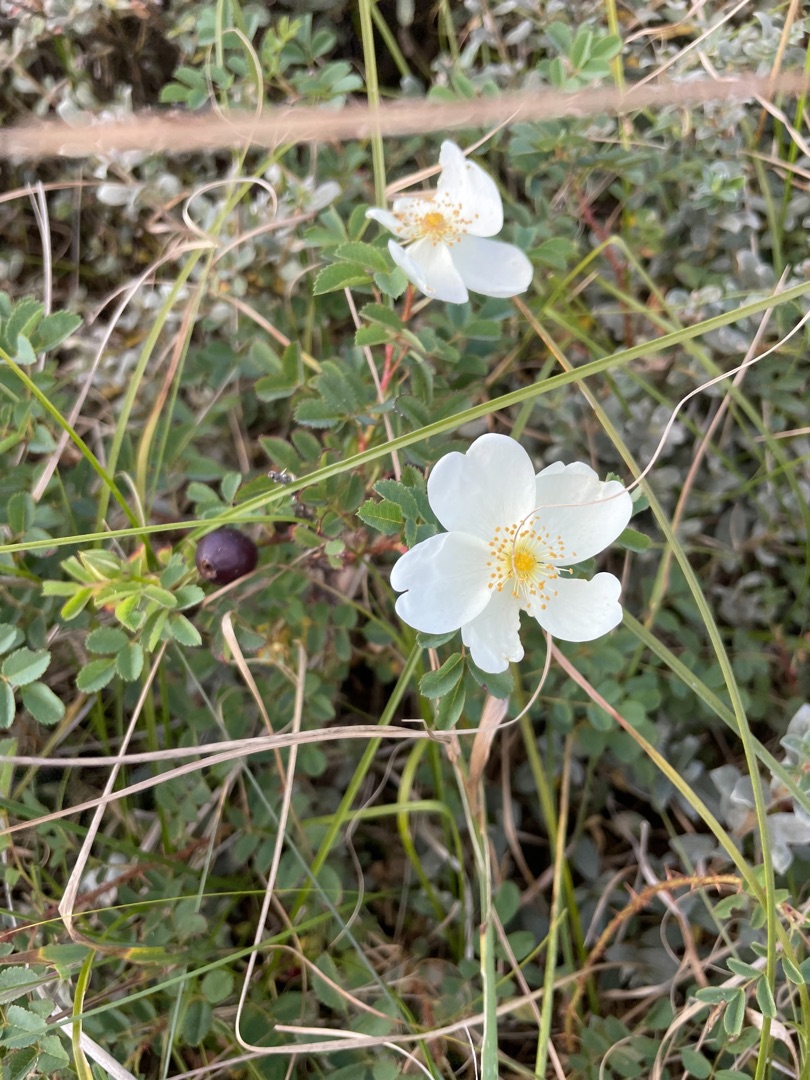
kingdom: Plantae
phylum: Tracheophyta
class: Magnoliopsida
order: Rosales
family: Rosaceae
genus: Rosa
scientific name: Rosa spinosissima
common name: Klit-rose
